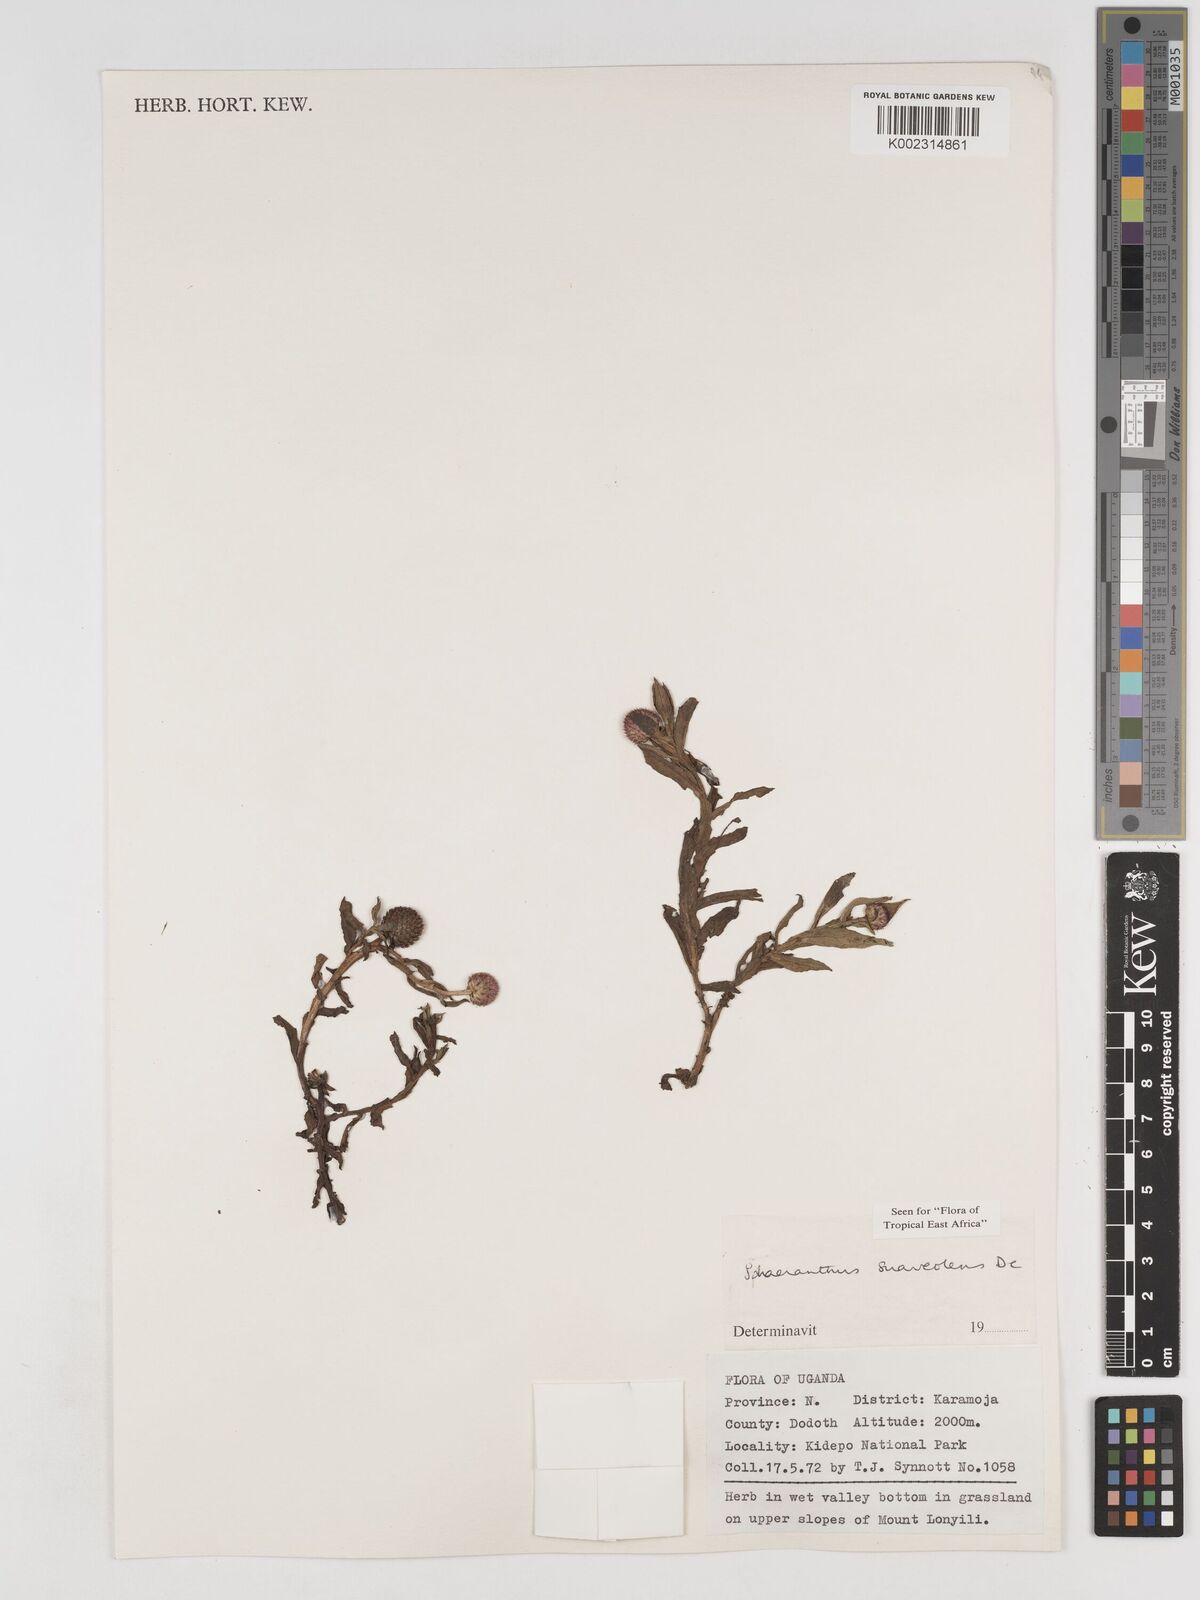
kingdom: Plantae
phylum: Tracheophyta
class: Magnoliopsida
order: Asterales
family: Asteraceae
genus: Sphaeranthus
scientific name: Sphaeranthus suaveolens
